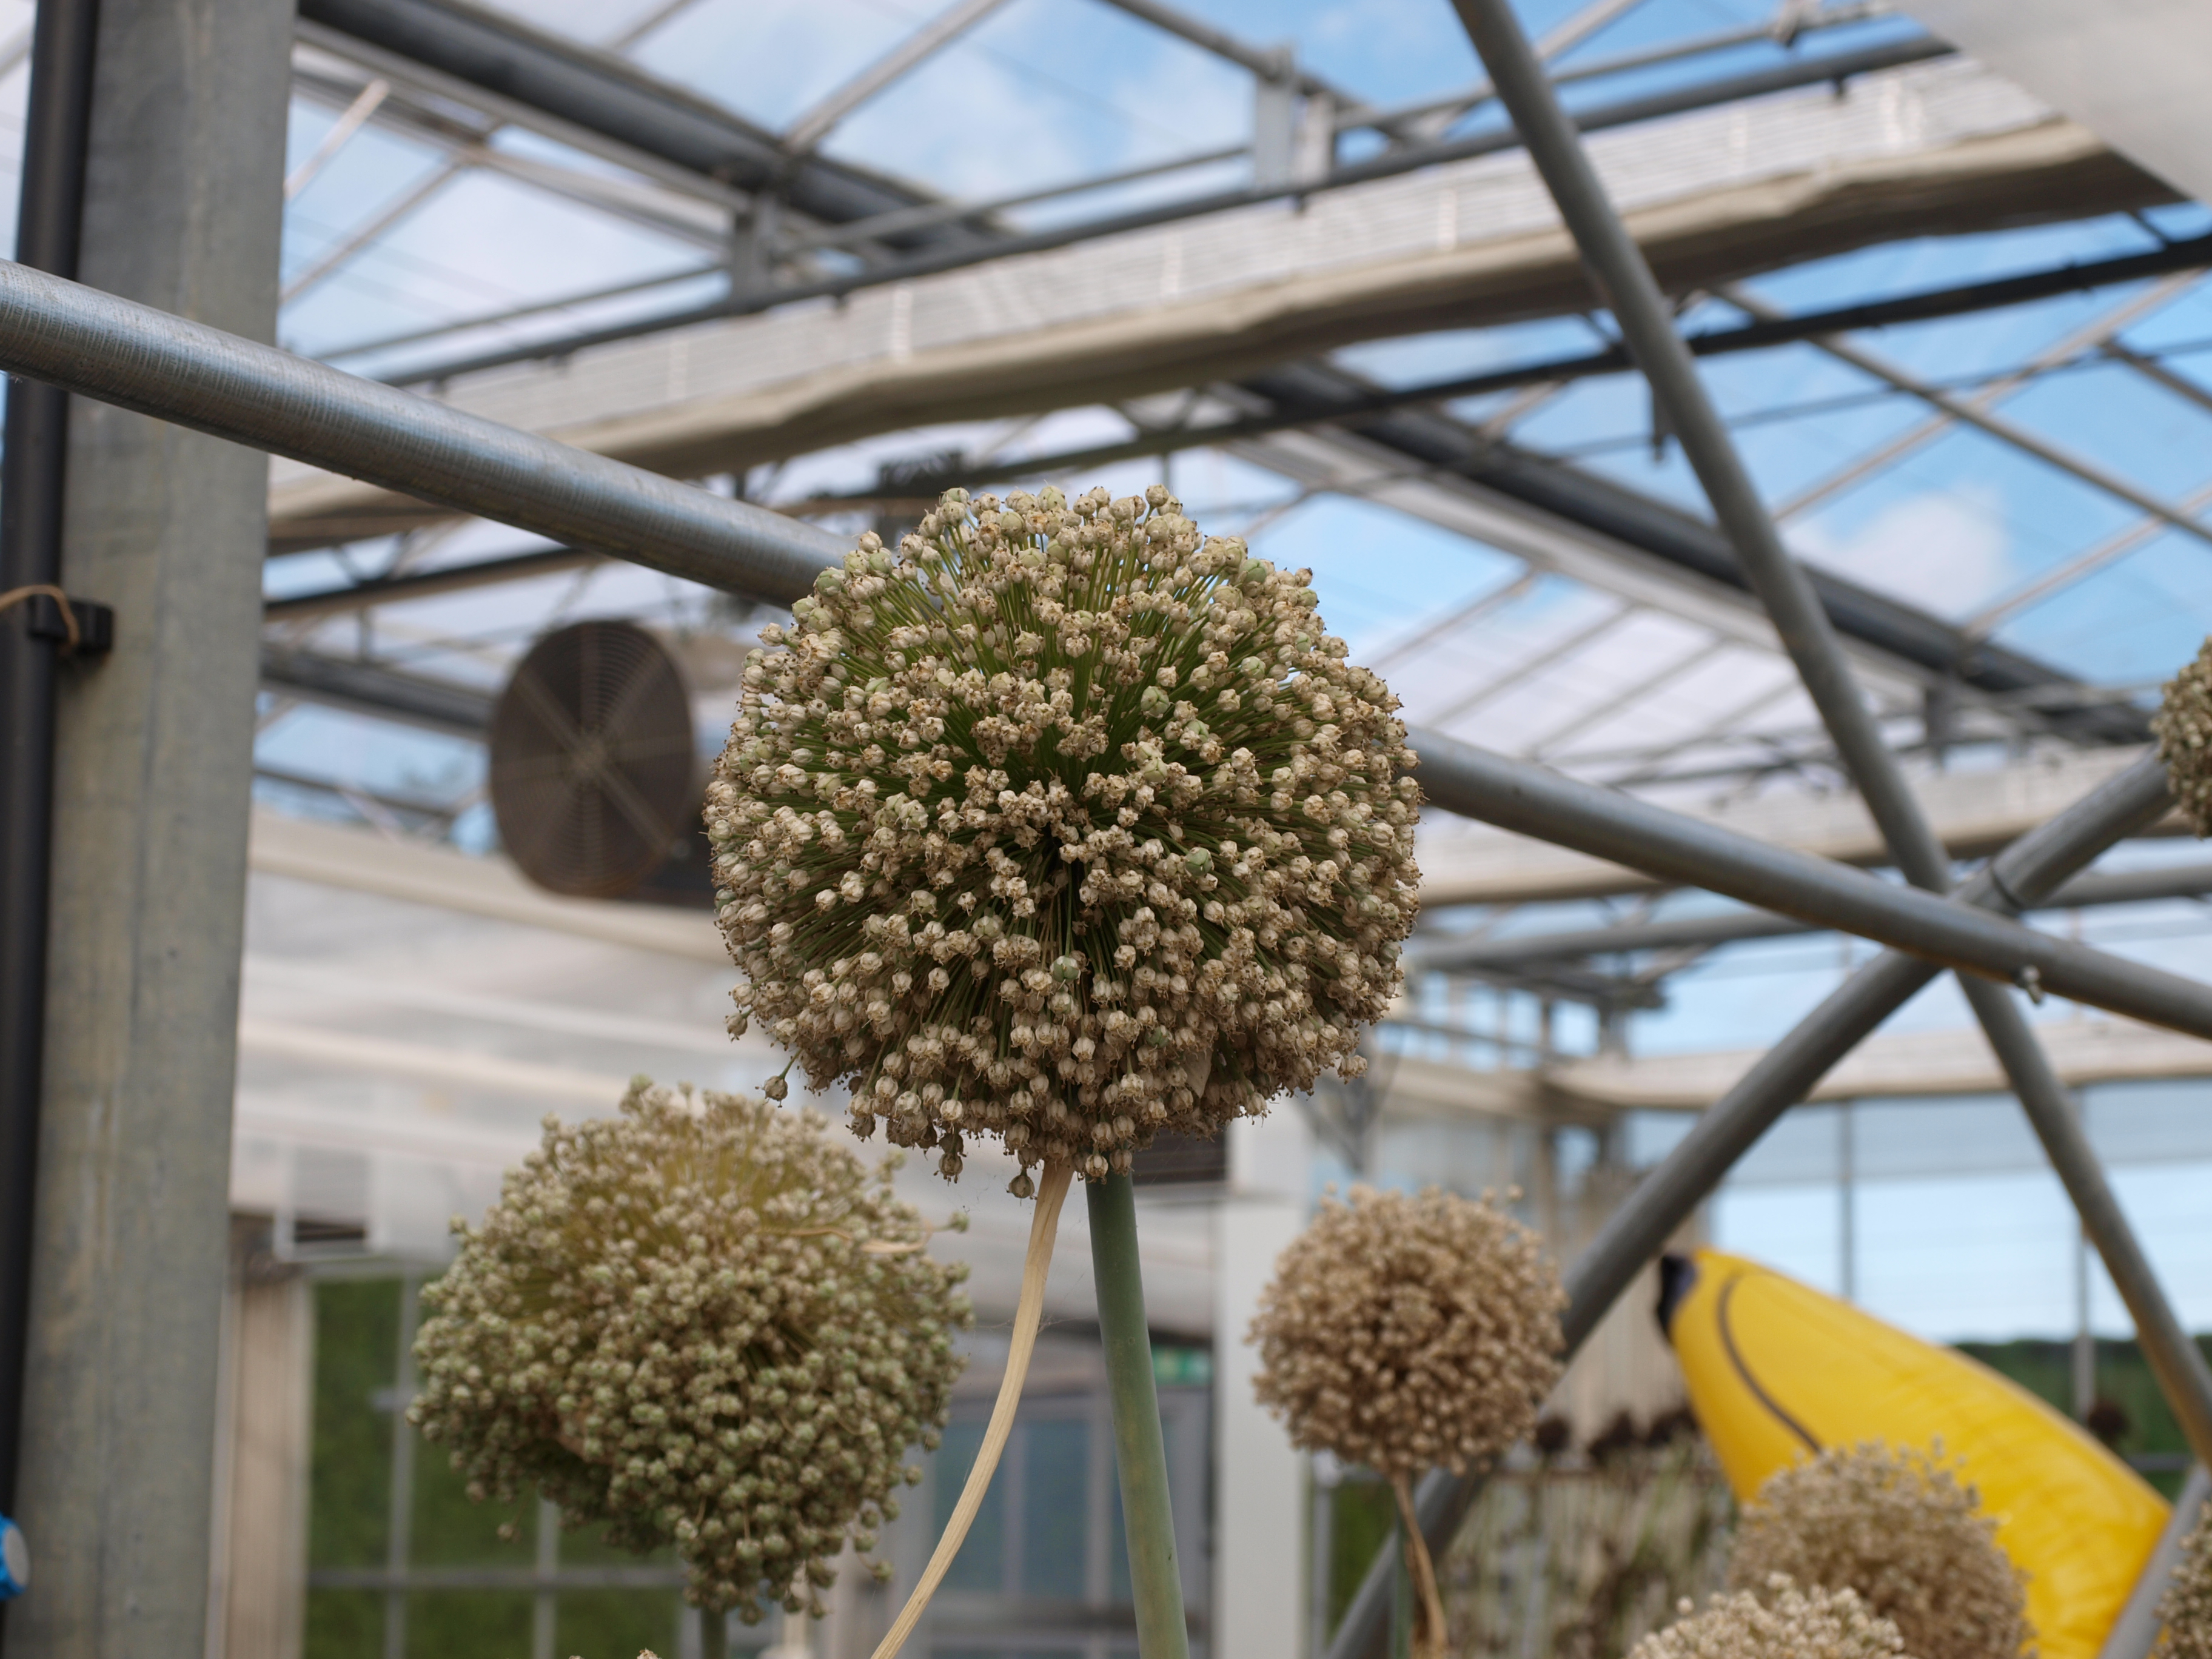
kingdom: Plantae
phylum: Tracheophyta
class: Liliopsida
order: Asparagales
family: Amaryllidaceae
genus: Allium
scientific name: Allium ampeloprasum
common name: Wild leek
